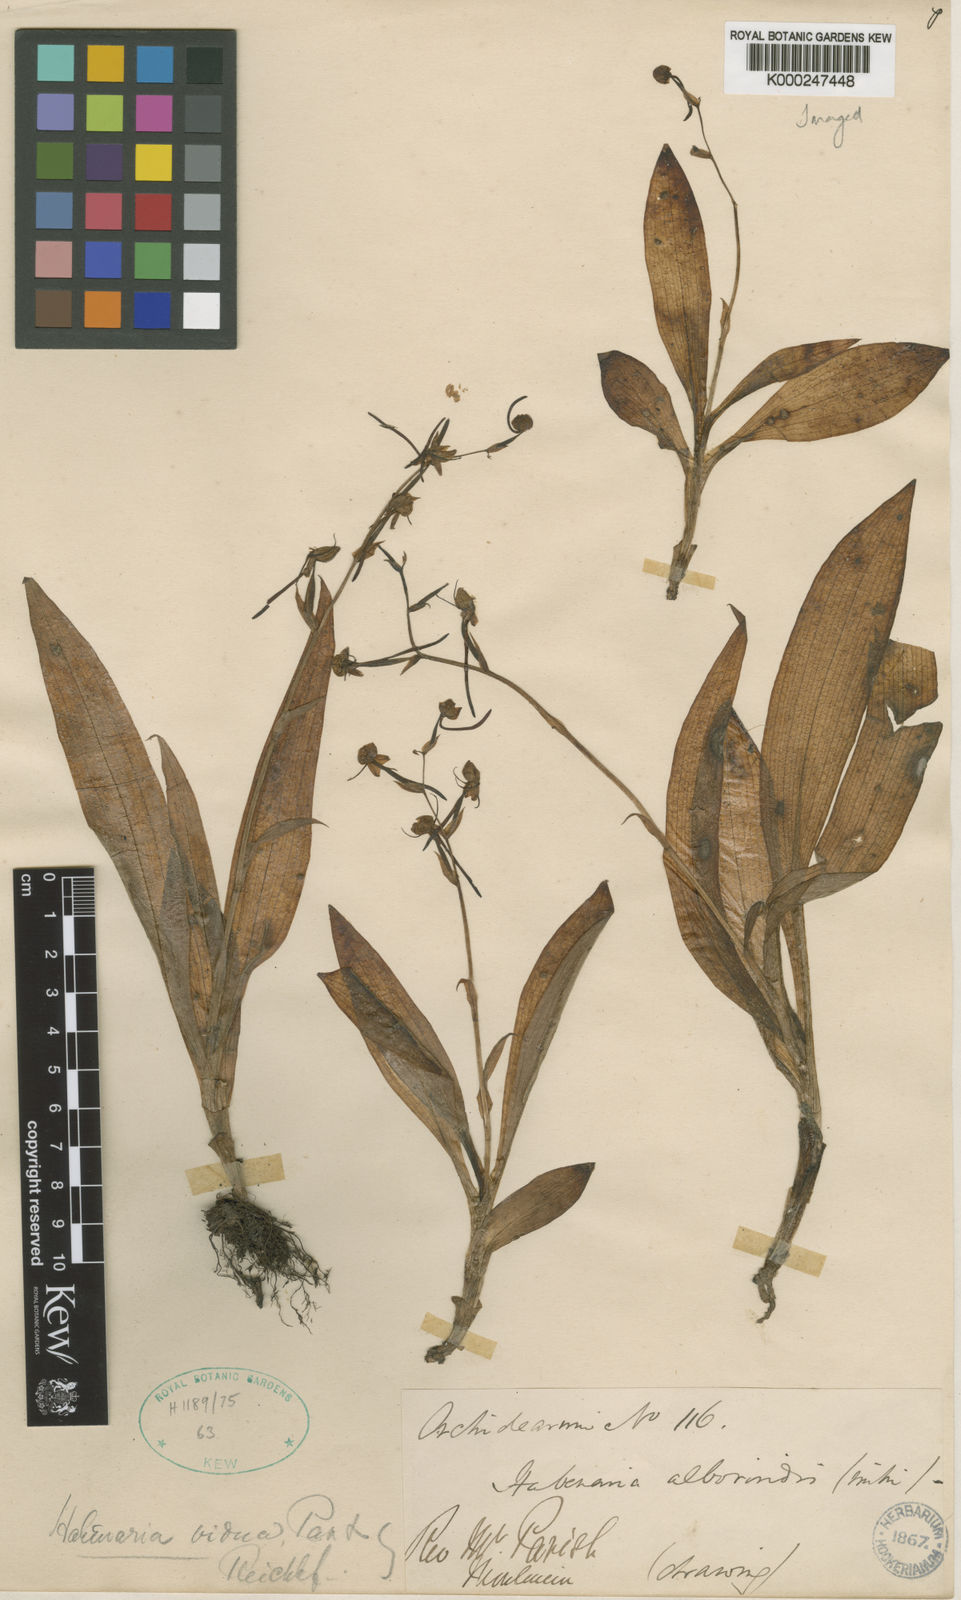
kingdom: Plantae
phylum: Tracheophyta
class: Liliopsida
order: Asparagales
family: Orchidaceae
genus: Habenaria
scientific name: Habenaria vidua
